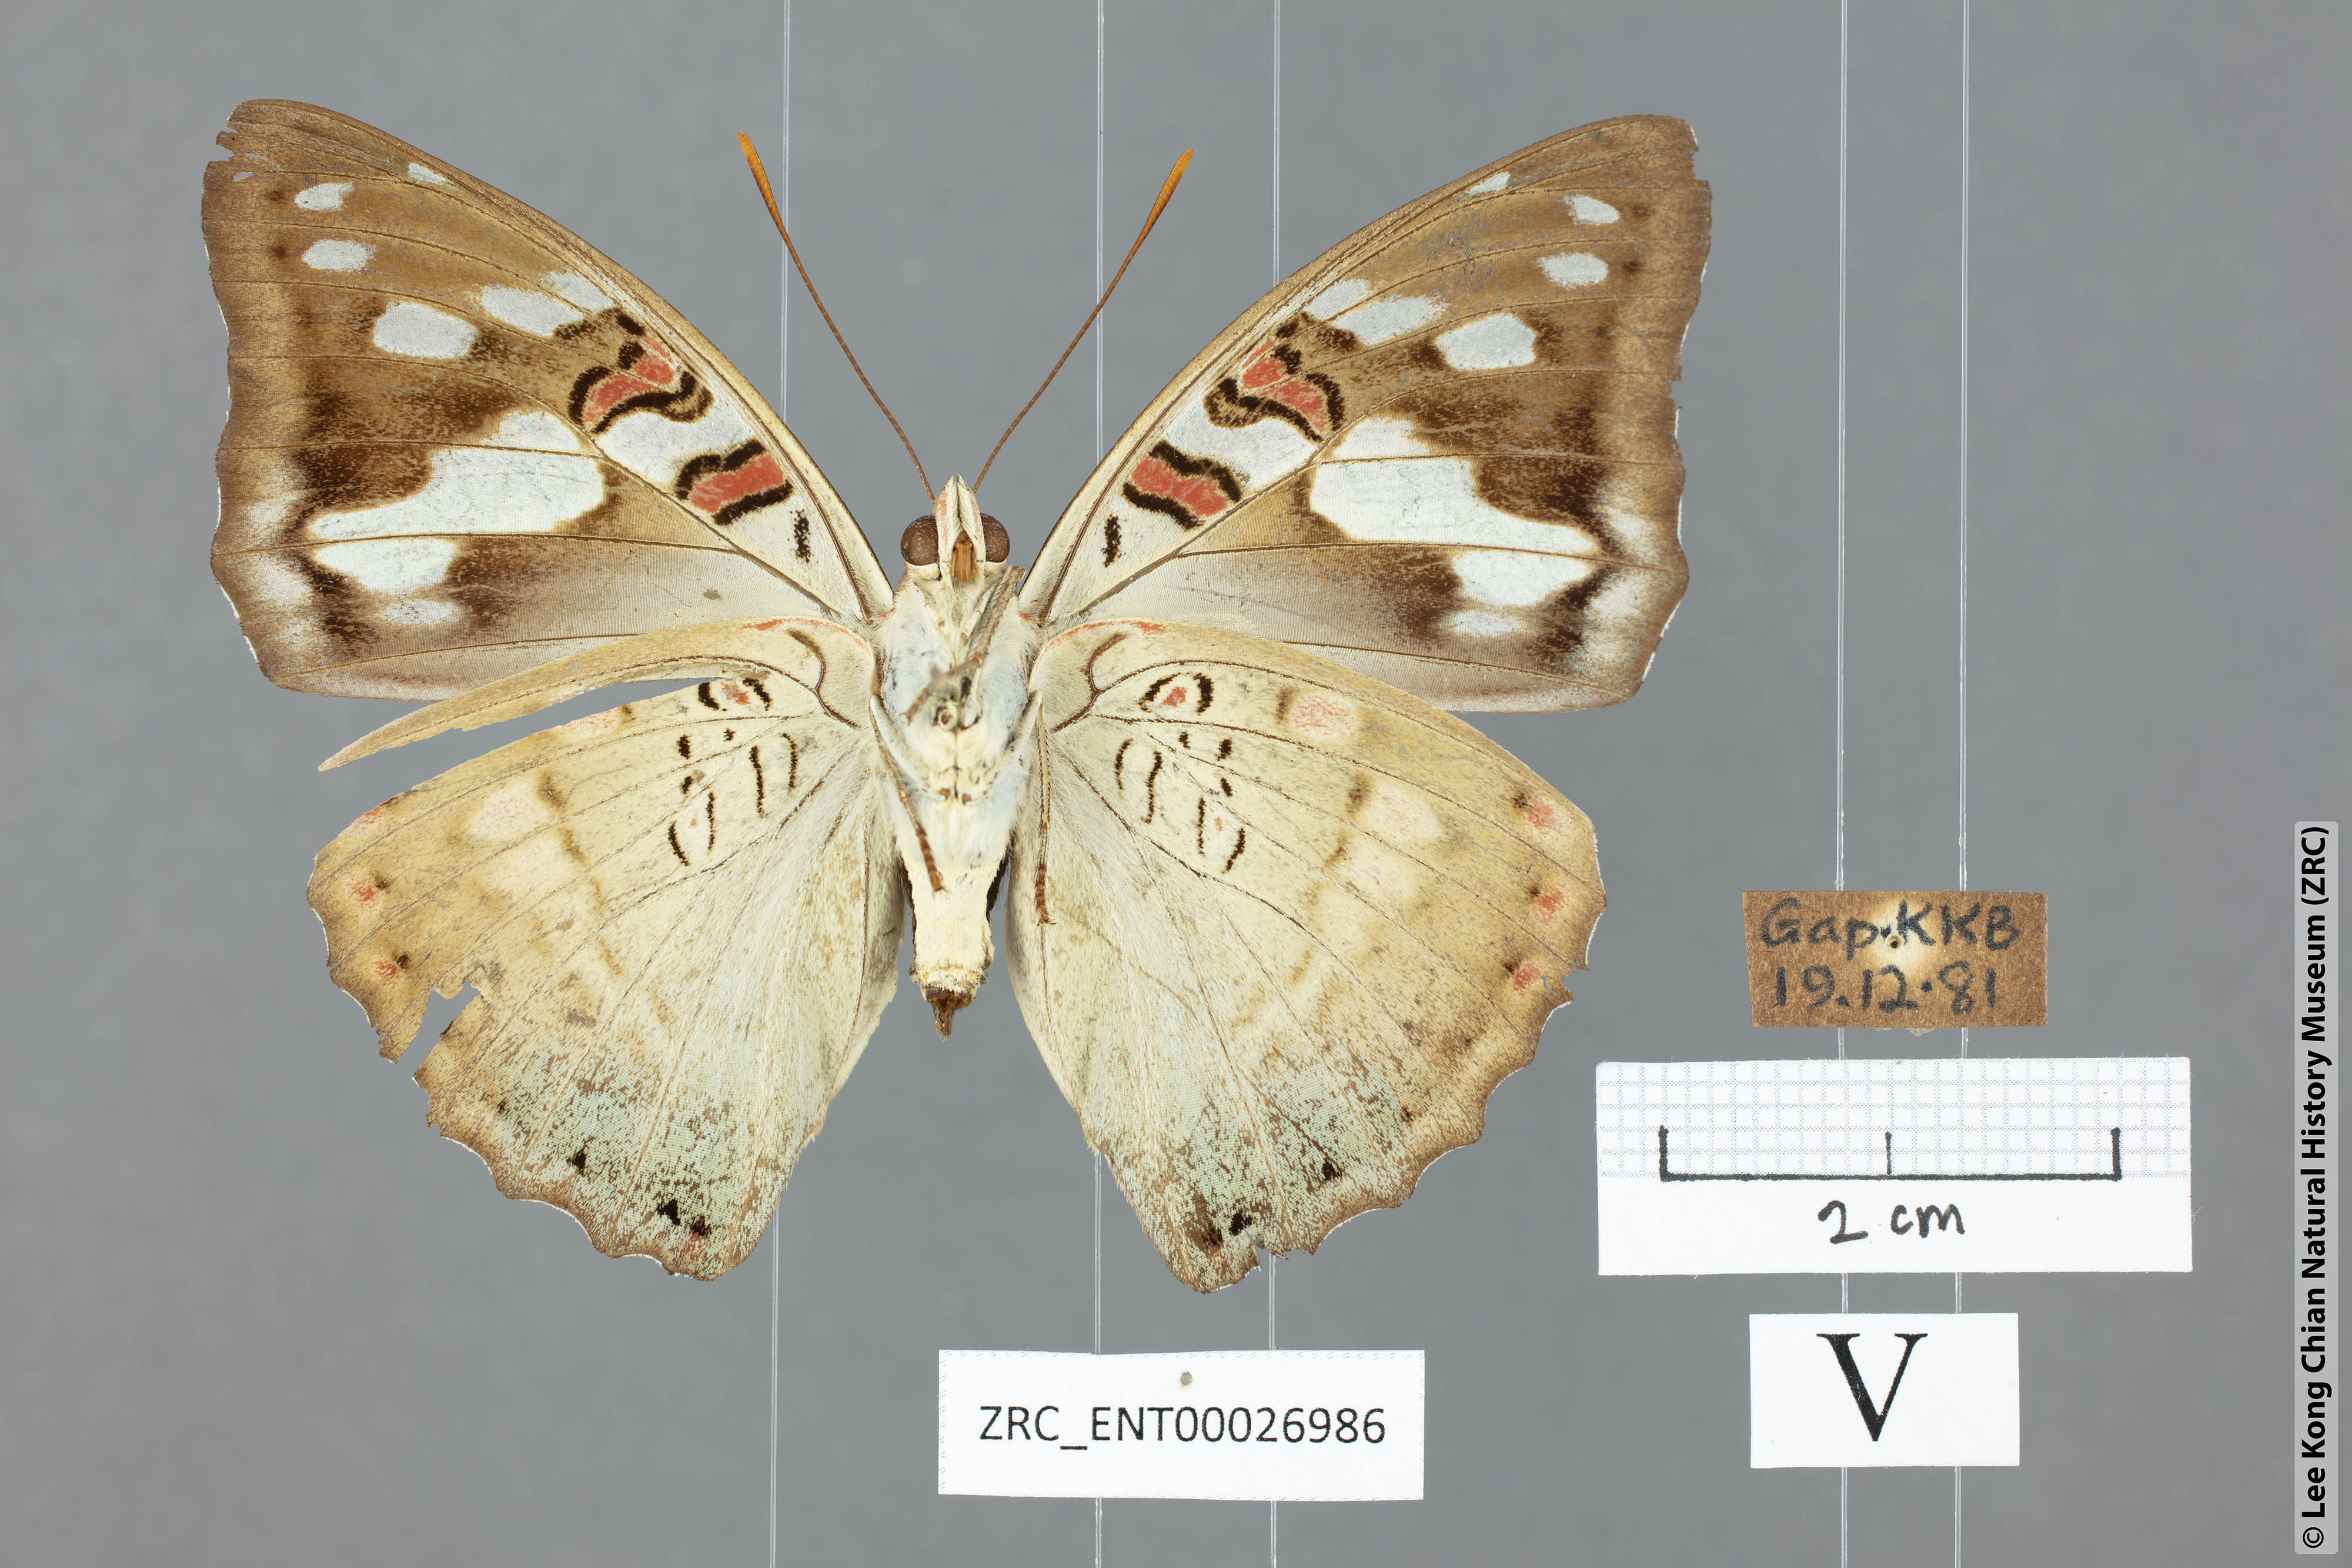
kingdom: Animalia
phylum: Arthropoda
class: Insecta
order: Lepidoptera
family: Nymphalidae
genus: Euthalia
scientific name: Euthalia whiteheadi
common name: Tri-coloured baron
